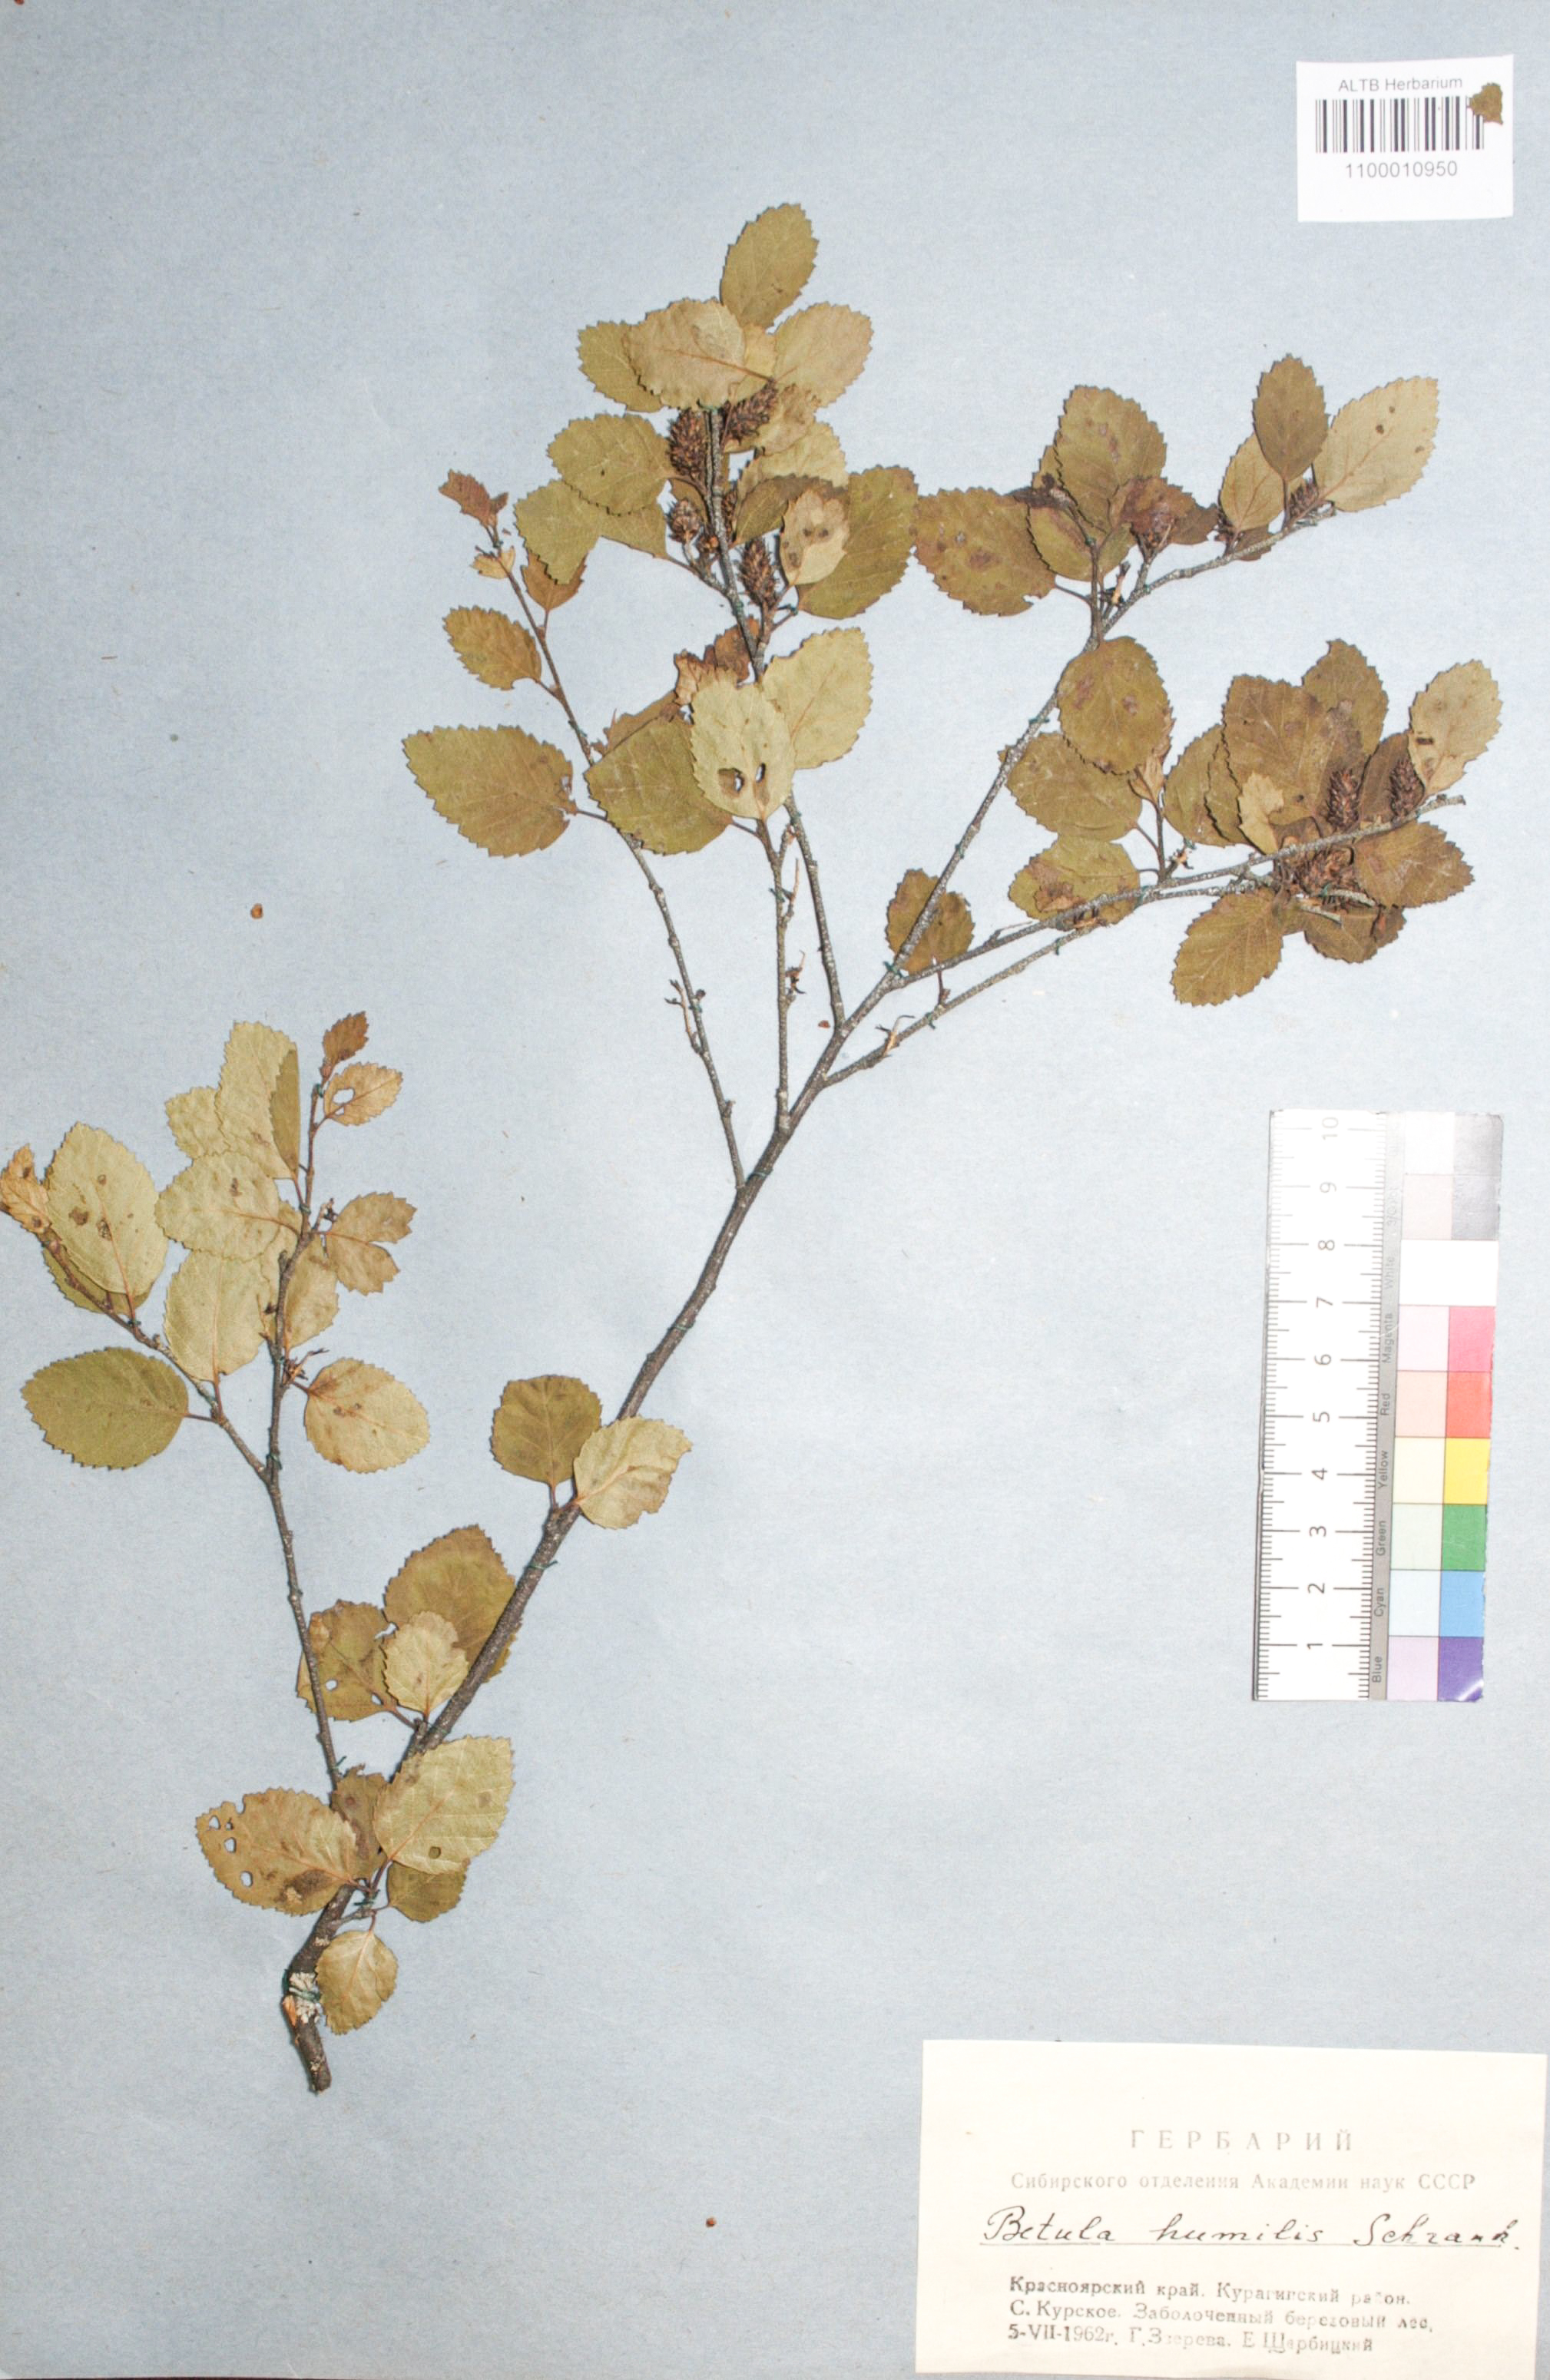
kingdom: Plantae
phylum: Tracheophyta
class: Magnoliopsida
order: Fagales
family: Betulaceae
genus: Betula
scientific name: Betula humilis
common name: Shrubby birch
